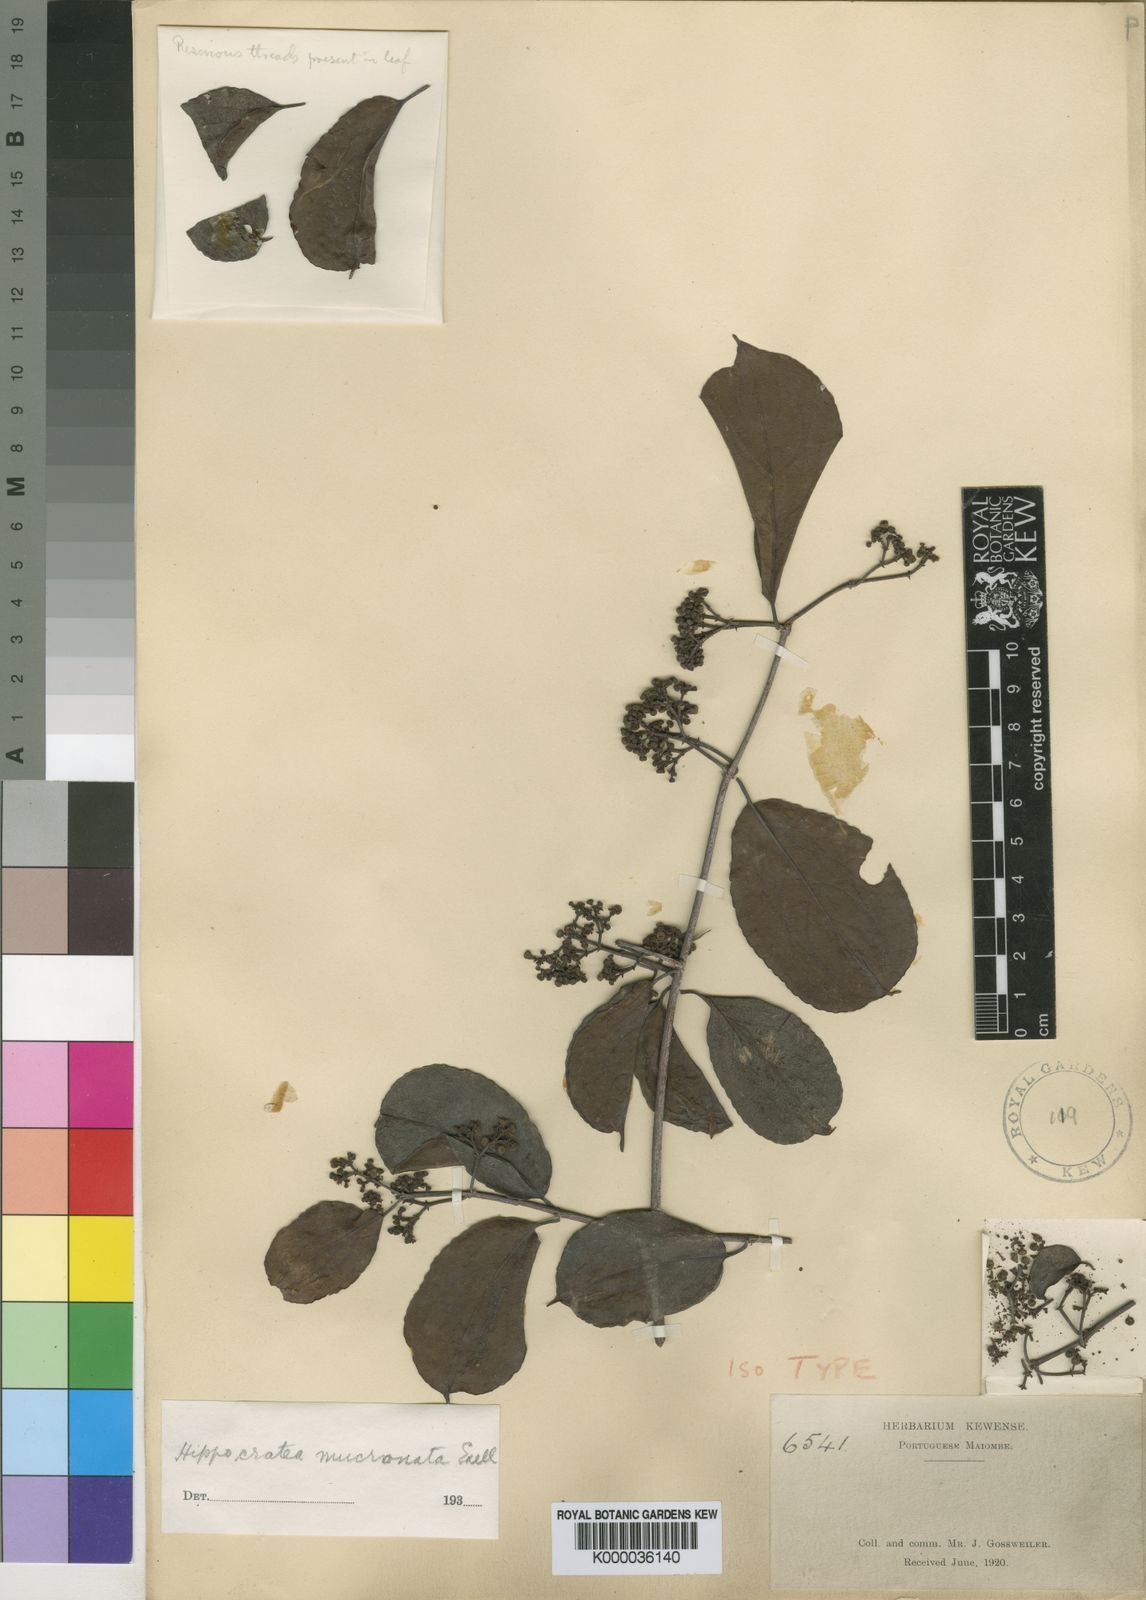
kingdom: Plantae
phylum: Tracheophyta
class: Magnoliopsida
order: Celastrales
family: Celastraceae
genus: Bequaertia
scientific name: Bequaertia mucronata
